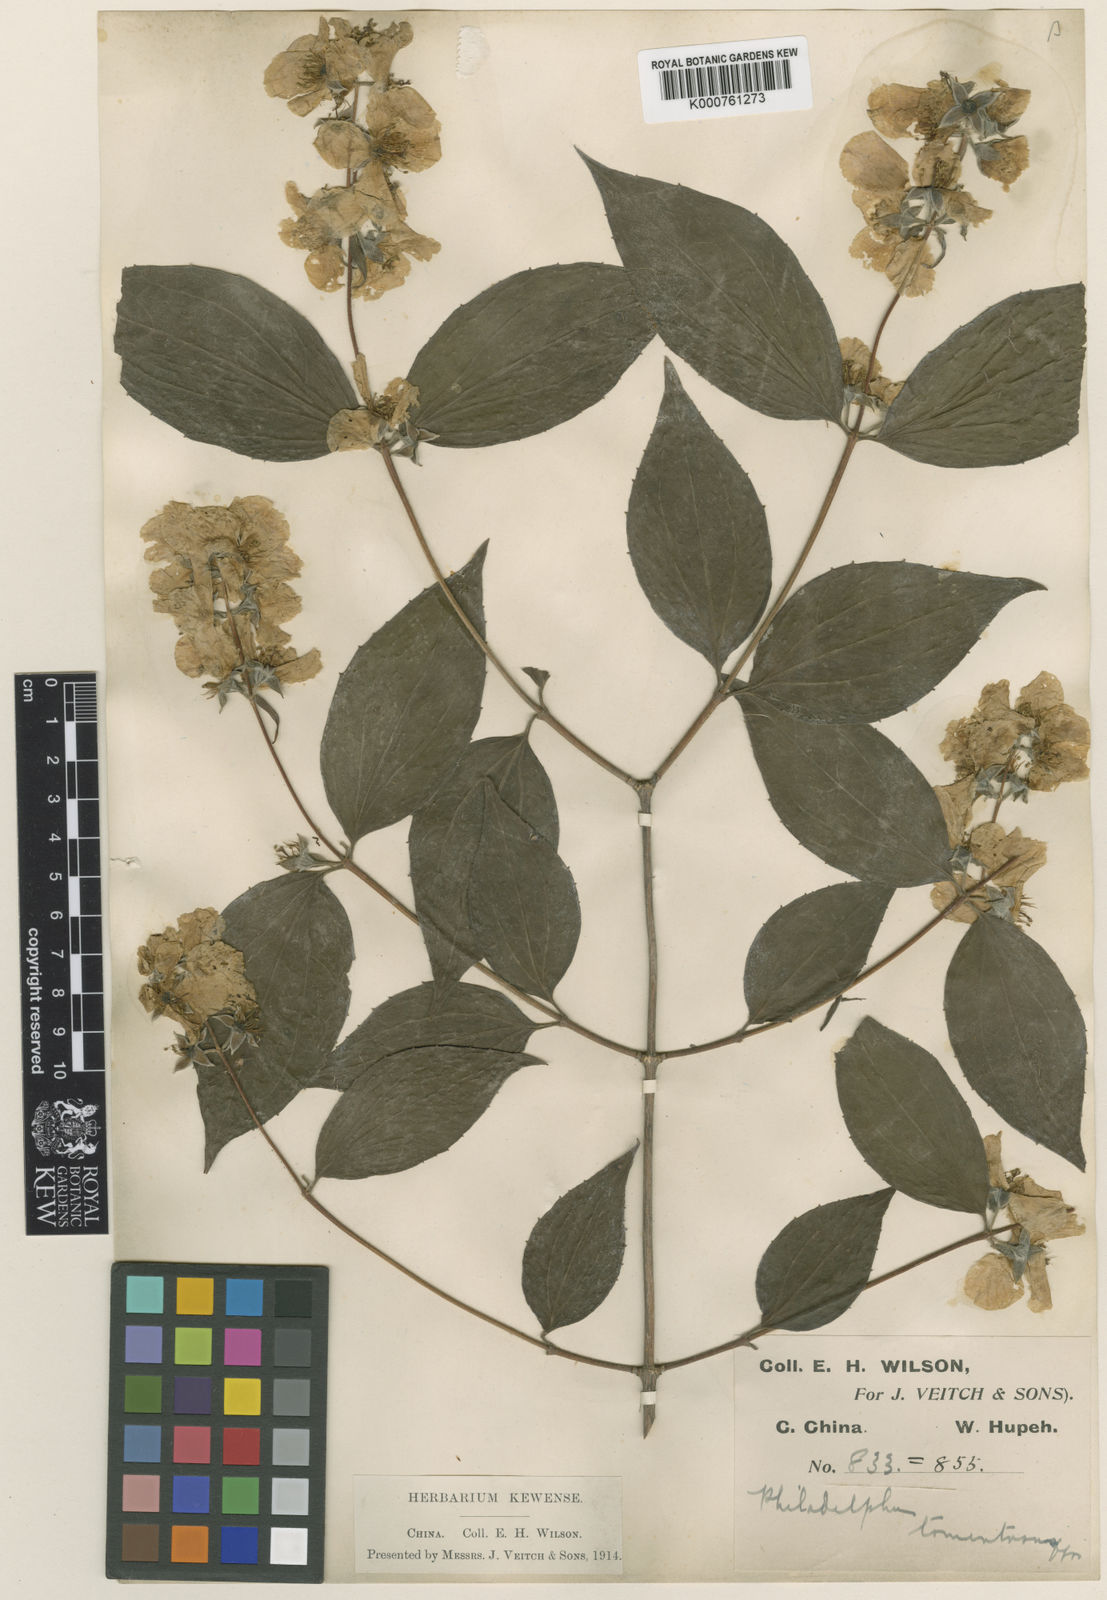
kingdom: Plantae
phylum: Tracheophyta
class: Magnoliopsida
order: Cornales
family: Hydrangeaceae
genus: Philadelphus
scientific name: Philadelphus
